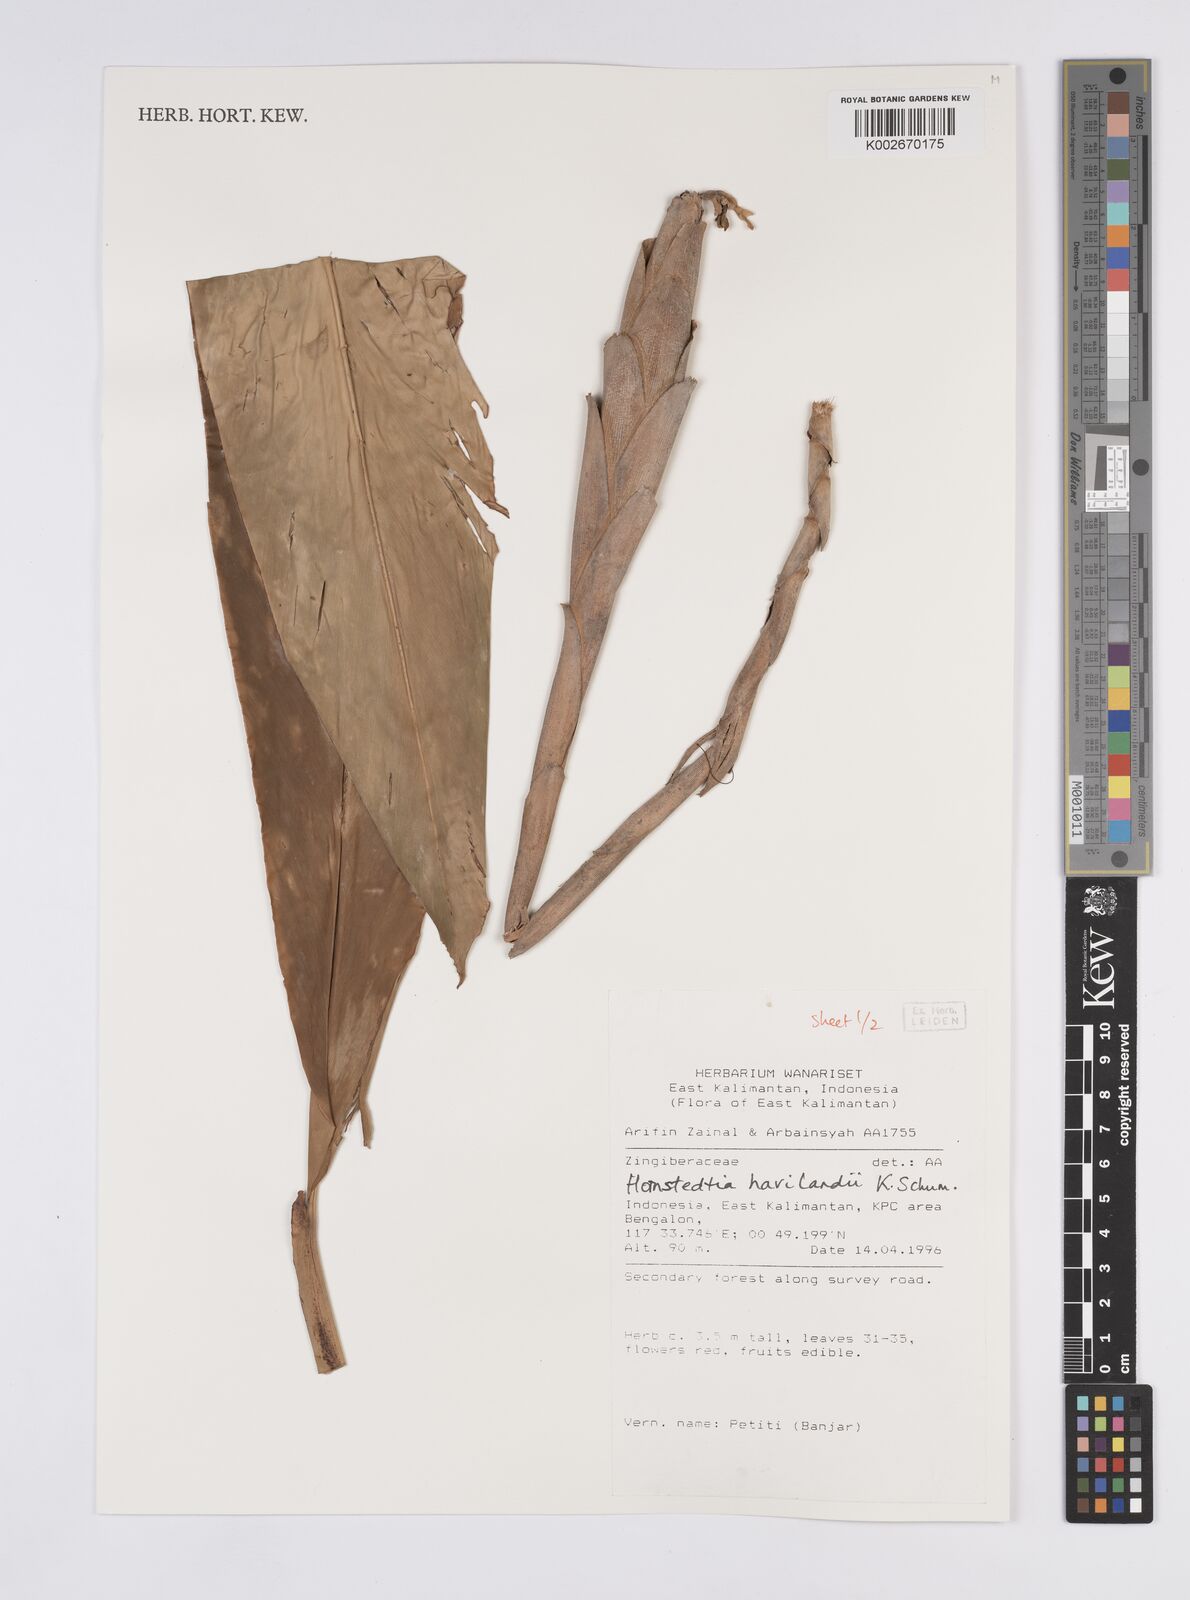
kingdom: Plantae
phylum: Tracheophyta
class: Liliopsida
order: Zingiberales
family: Zingiberaceae
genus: Hornstedtia
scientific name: Hornstedtia havilandii
